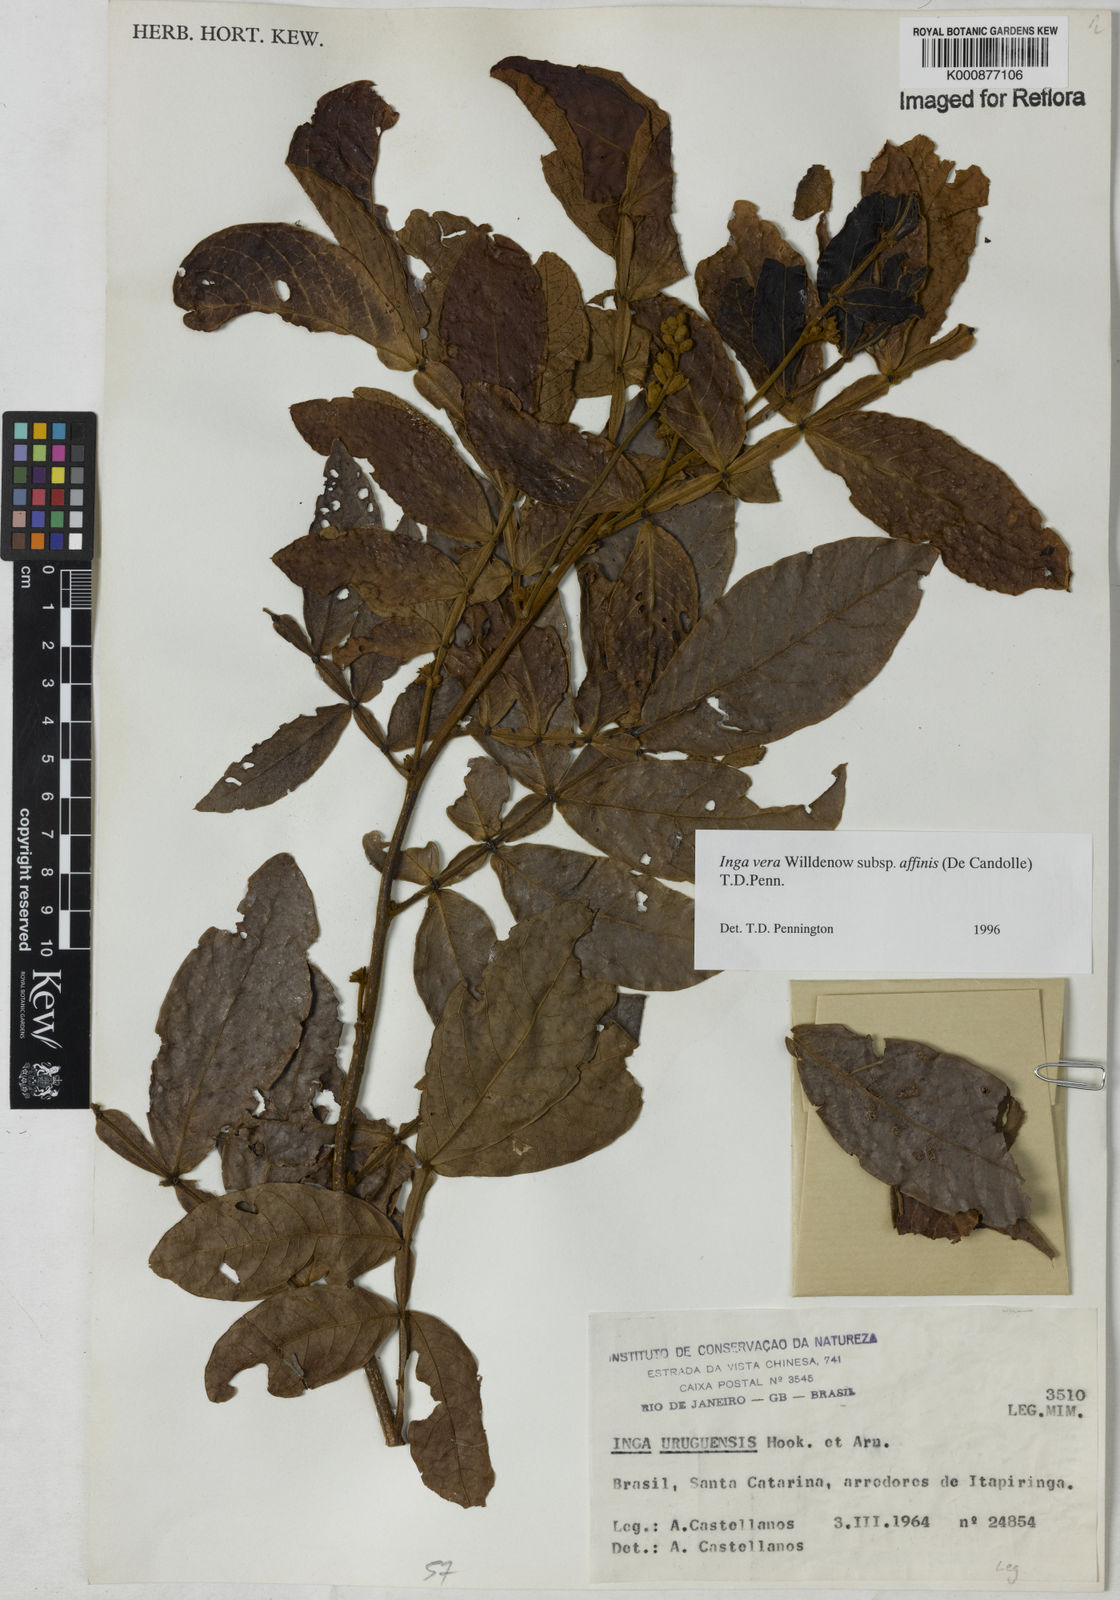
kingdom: Plantae
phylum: Tracheophyta
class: Magnoliopsida
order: Fabales
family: Fabaceae
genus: Inga
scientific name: Inga affinis
